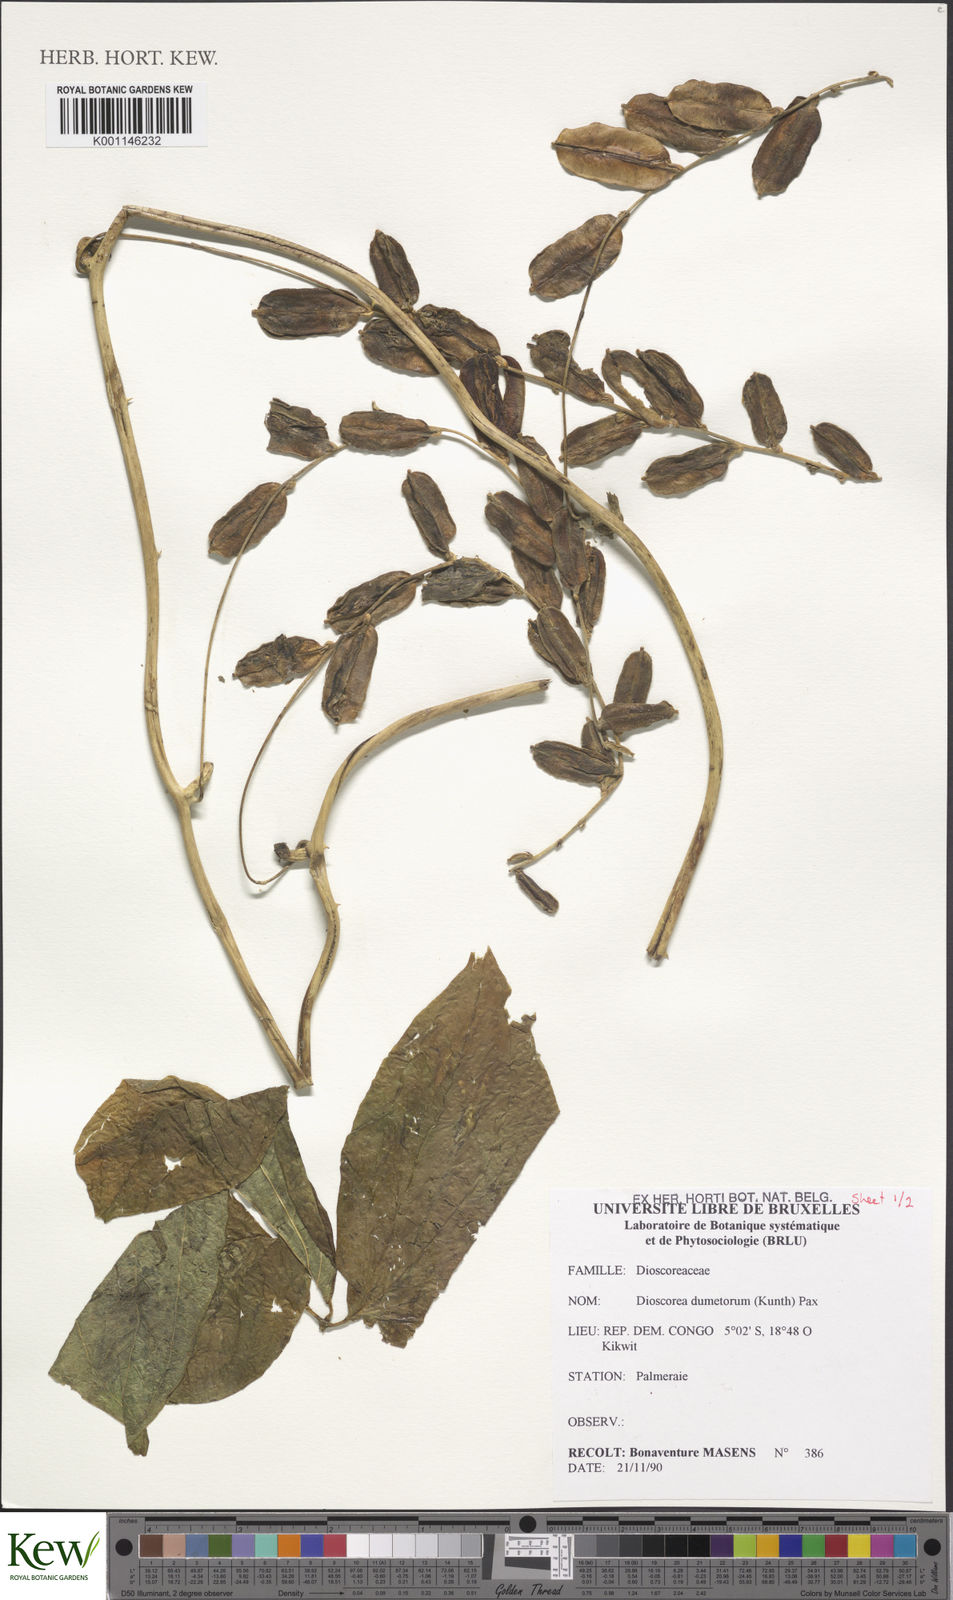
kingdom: Plantae
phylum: Tracheophyta
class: Liliopsida
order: Dioscoreales
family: Dioscoreaceae
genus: Dioscorea
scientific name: Dioscorea dumetorum
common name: African bitter yam
